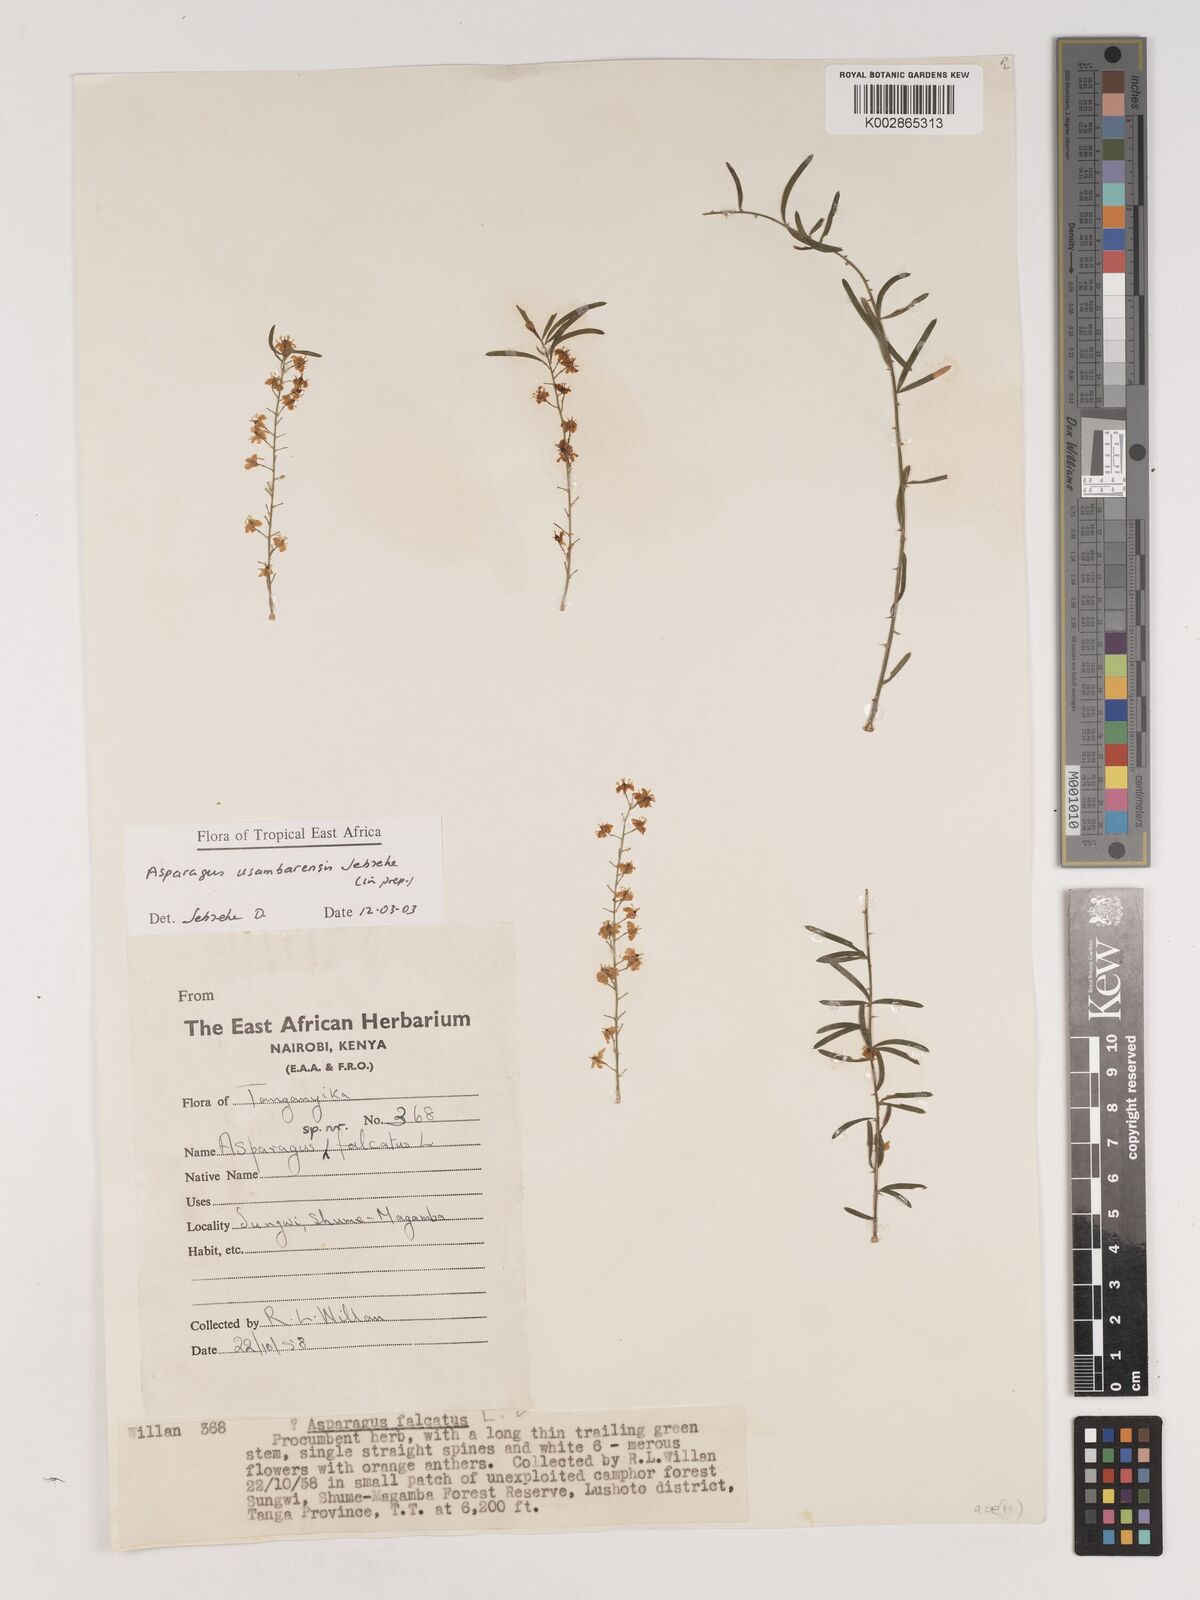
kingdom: Plantae
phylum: Tracheophyta
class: Liliopsida
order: Asparagales
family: Asparagaceae
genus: Asparagus
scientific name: Asparagus usambarensis
